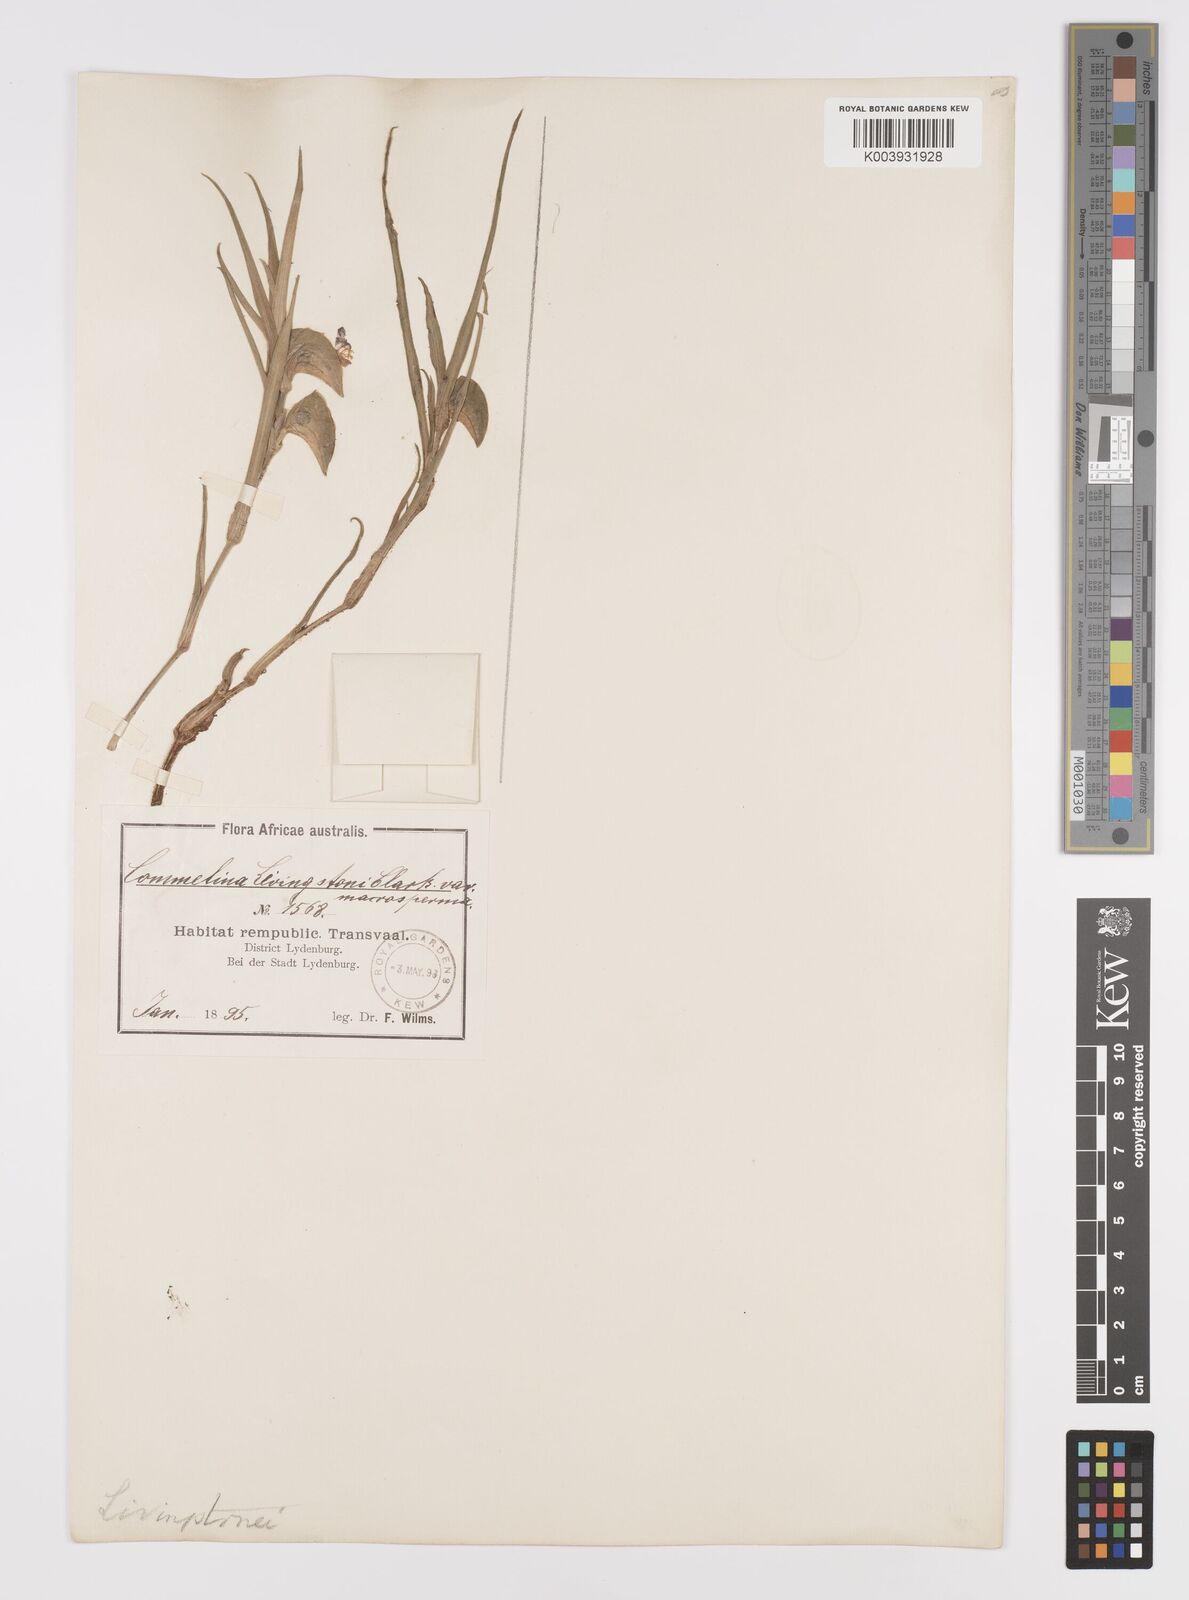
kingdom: Plantae
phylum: Tracheophyta
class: Liliopsida
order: Commelinales
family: Commelinaceae
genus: Commelina
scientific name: Commelina erecta
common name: Blousel blommetjie
